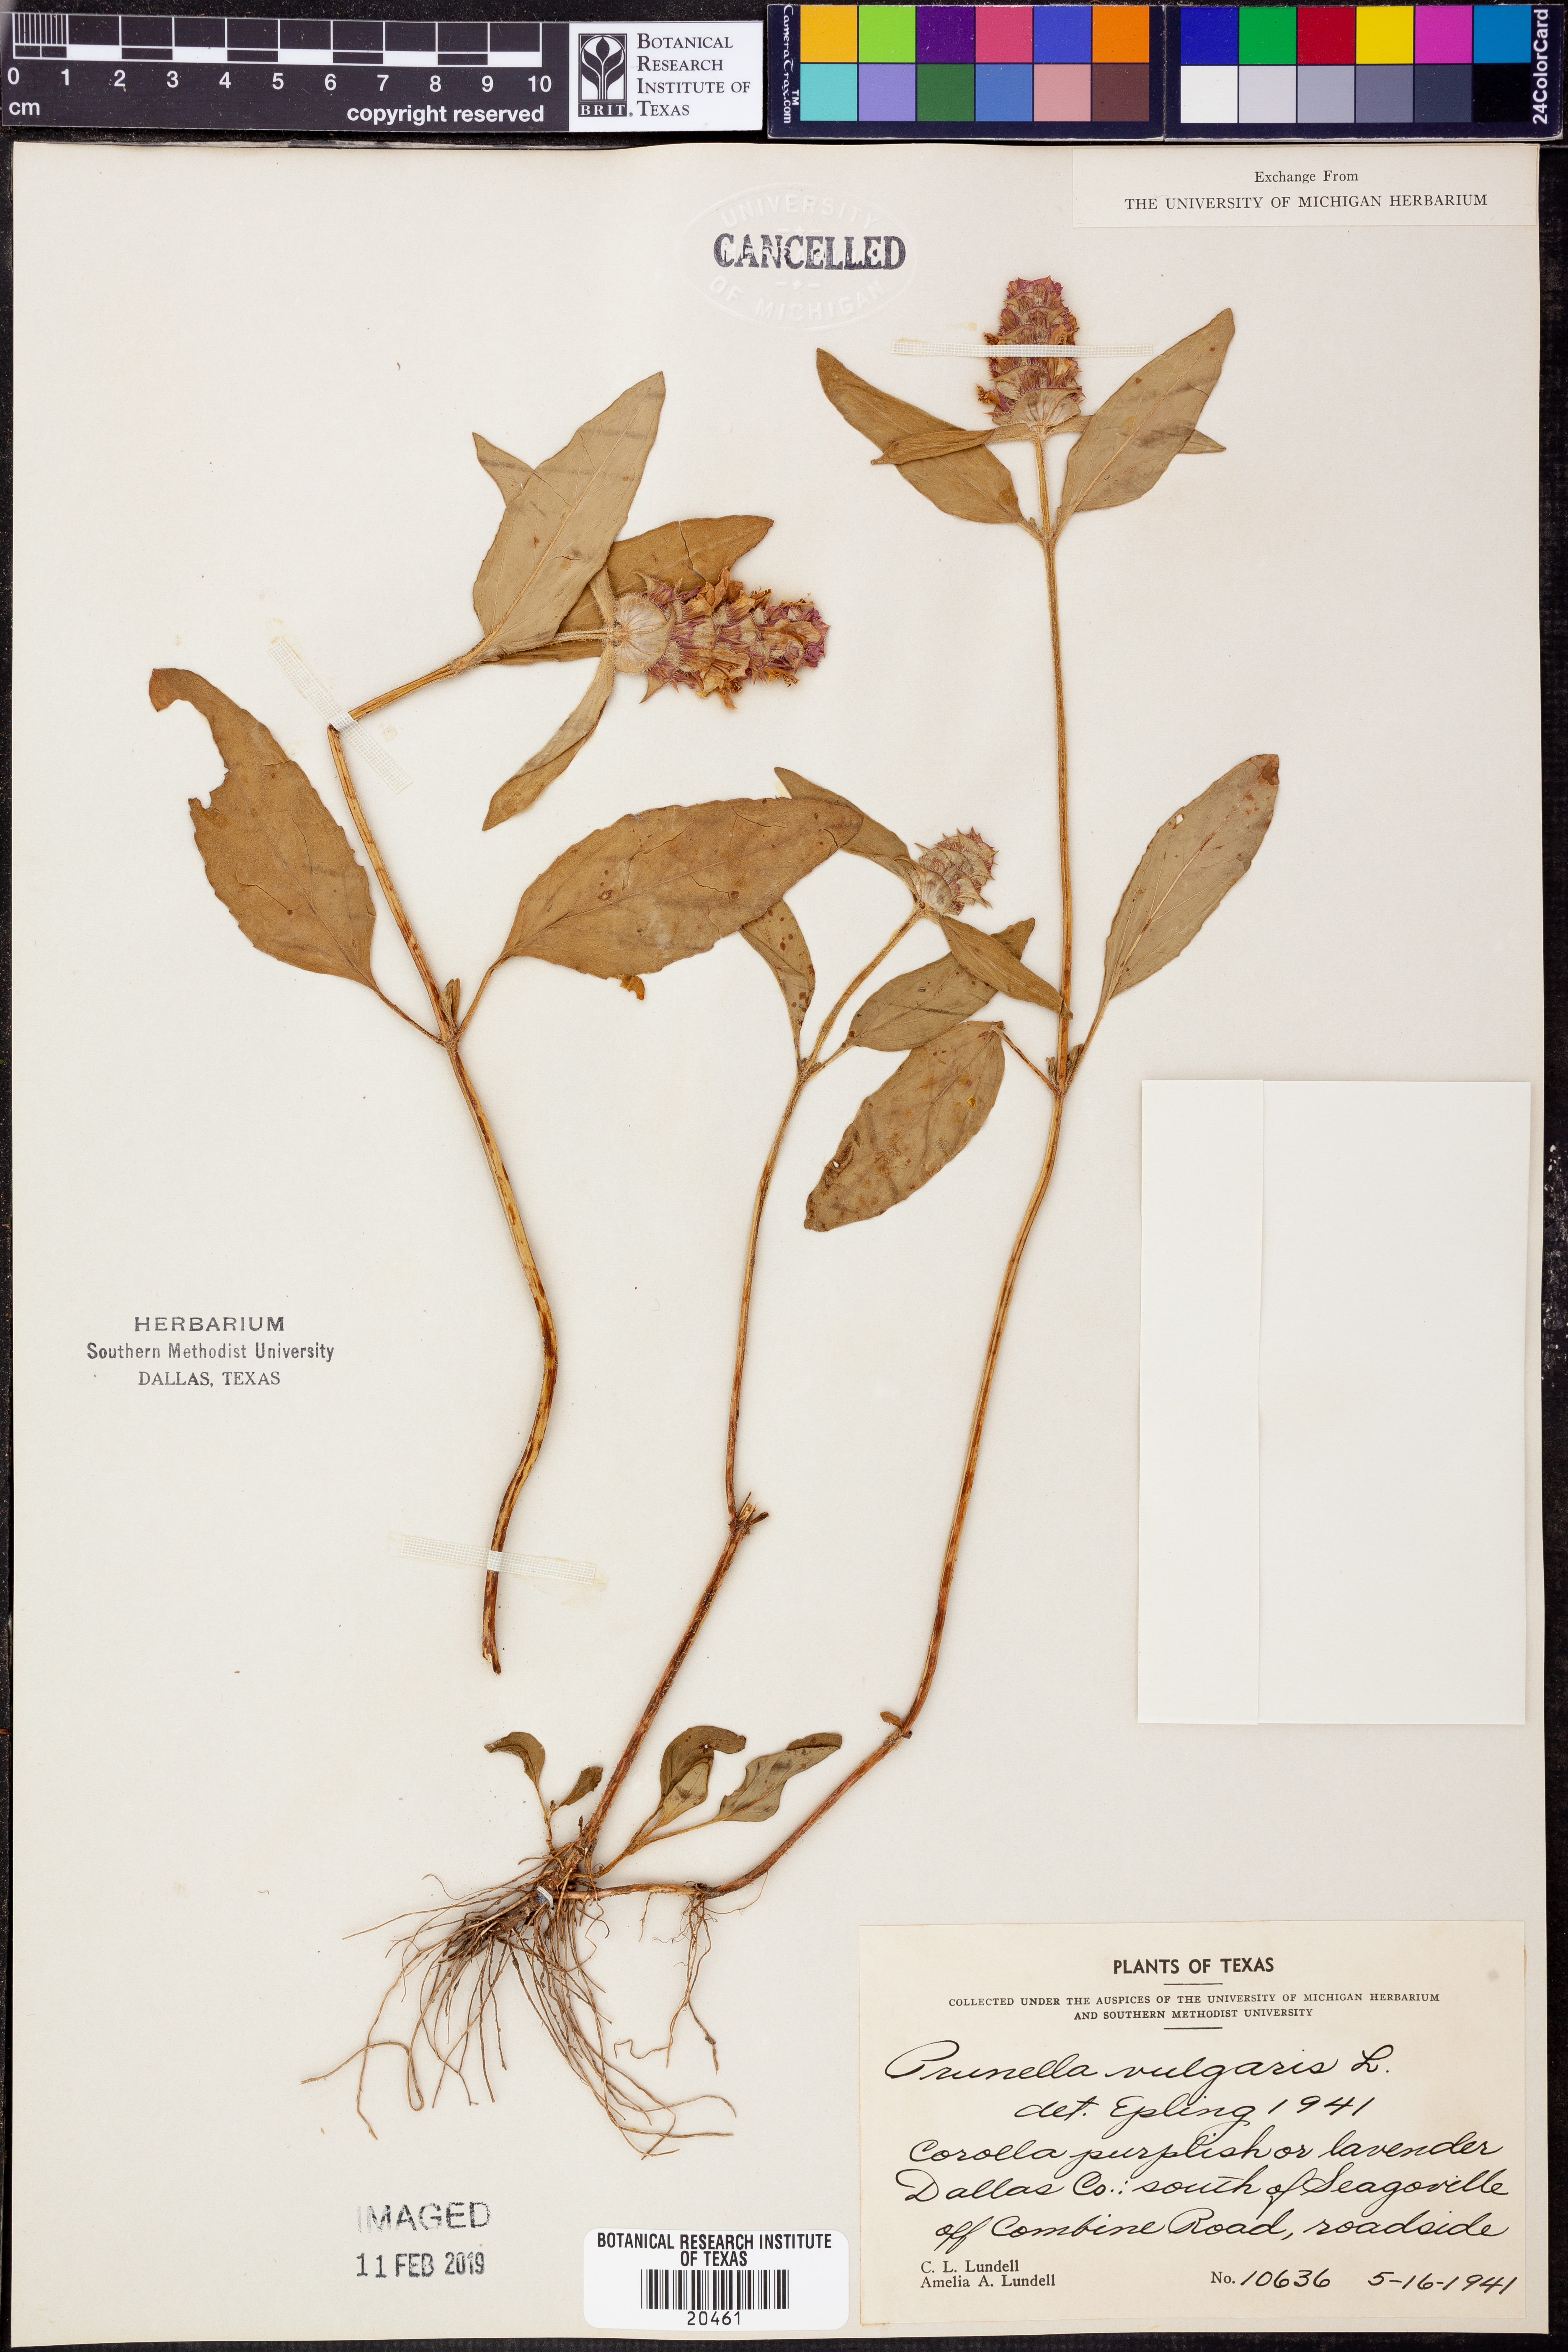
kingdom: Plantae
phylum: Tracheophyta
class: Magnoliopsida
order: Lamiales
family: Lamiaceae
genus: Prunella
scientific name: Prunella vulgaris
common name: Heal-all
